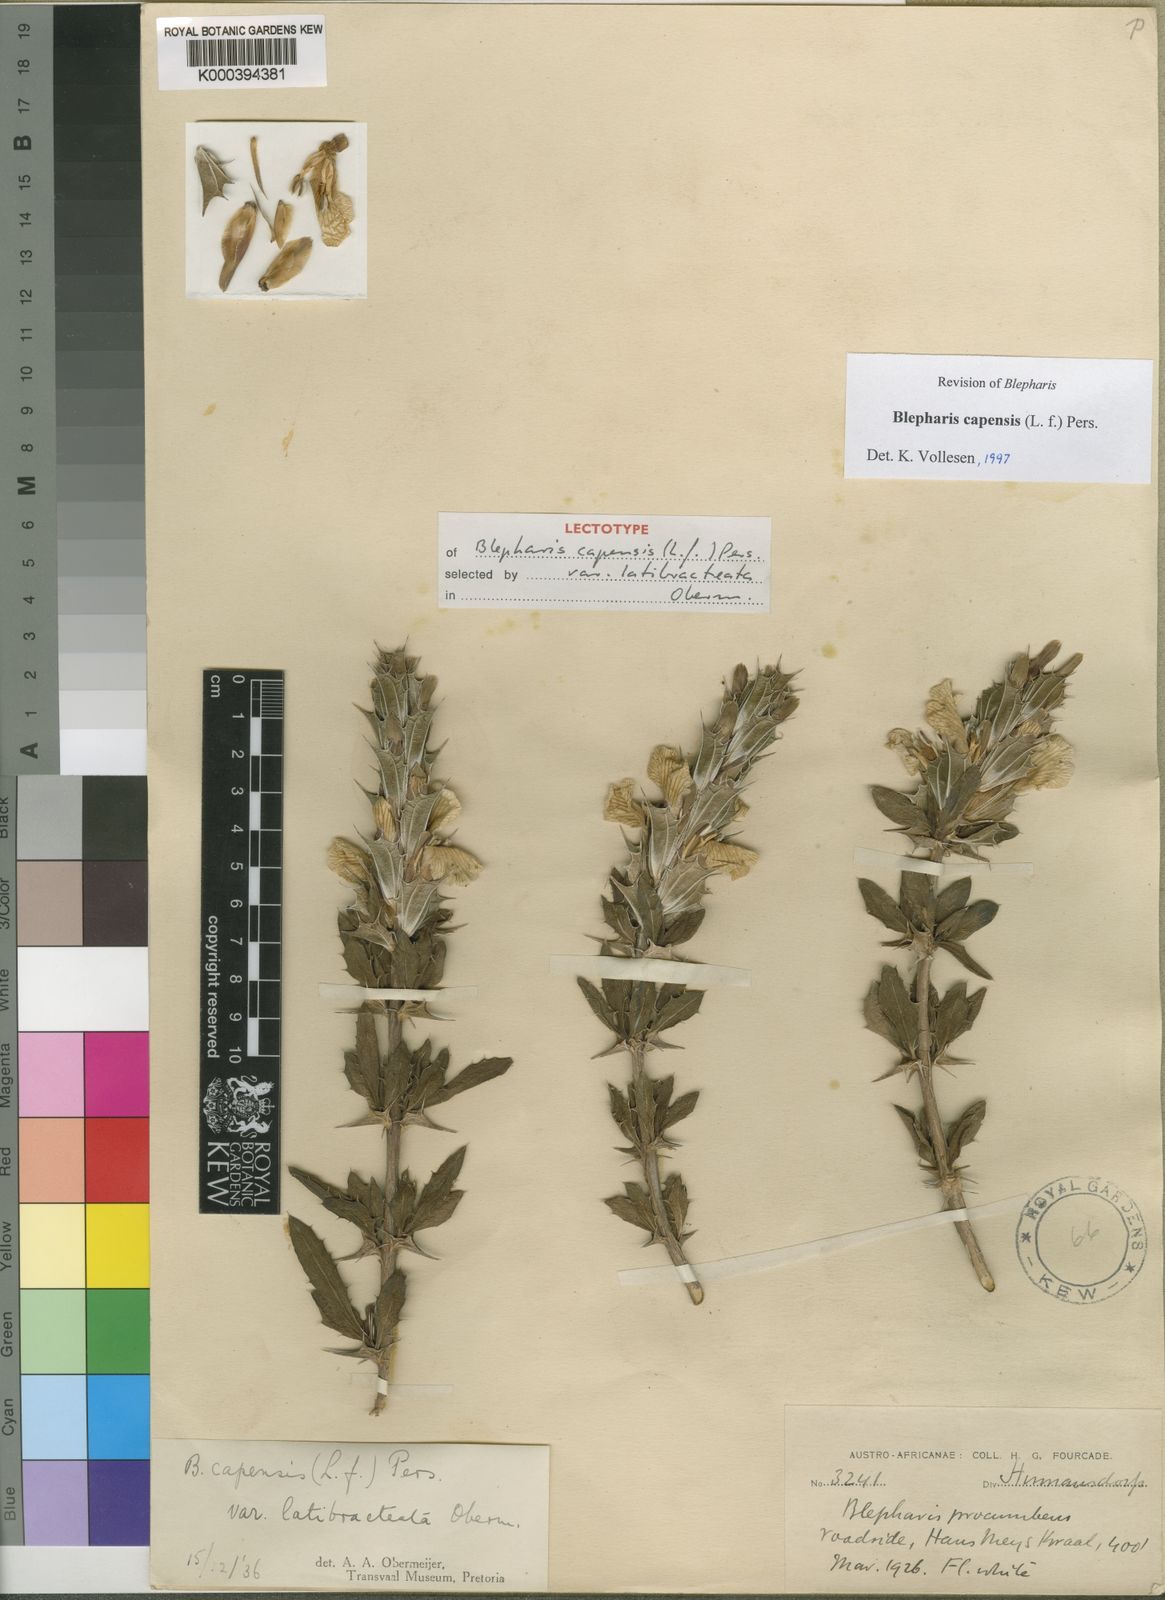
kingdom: Plantae
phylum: Tracheophyta
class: Magnoliopsida
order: Lamiales
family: Acanthaceae
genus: Blepharis
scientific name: Blepharis capensis
